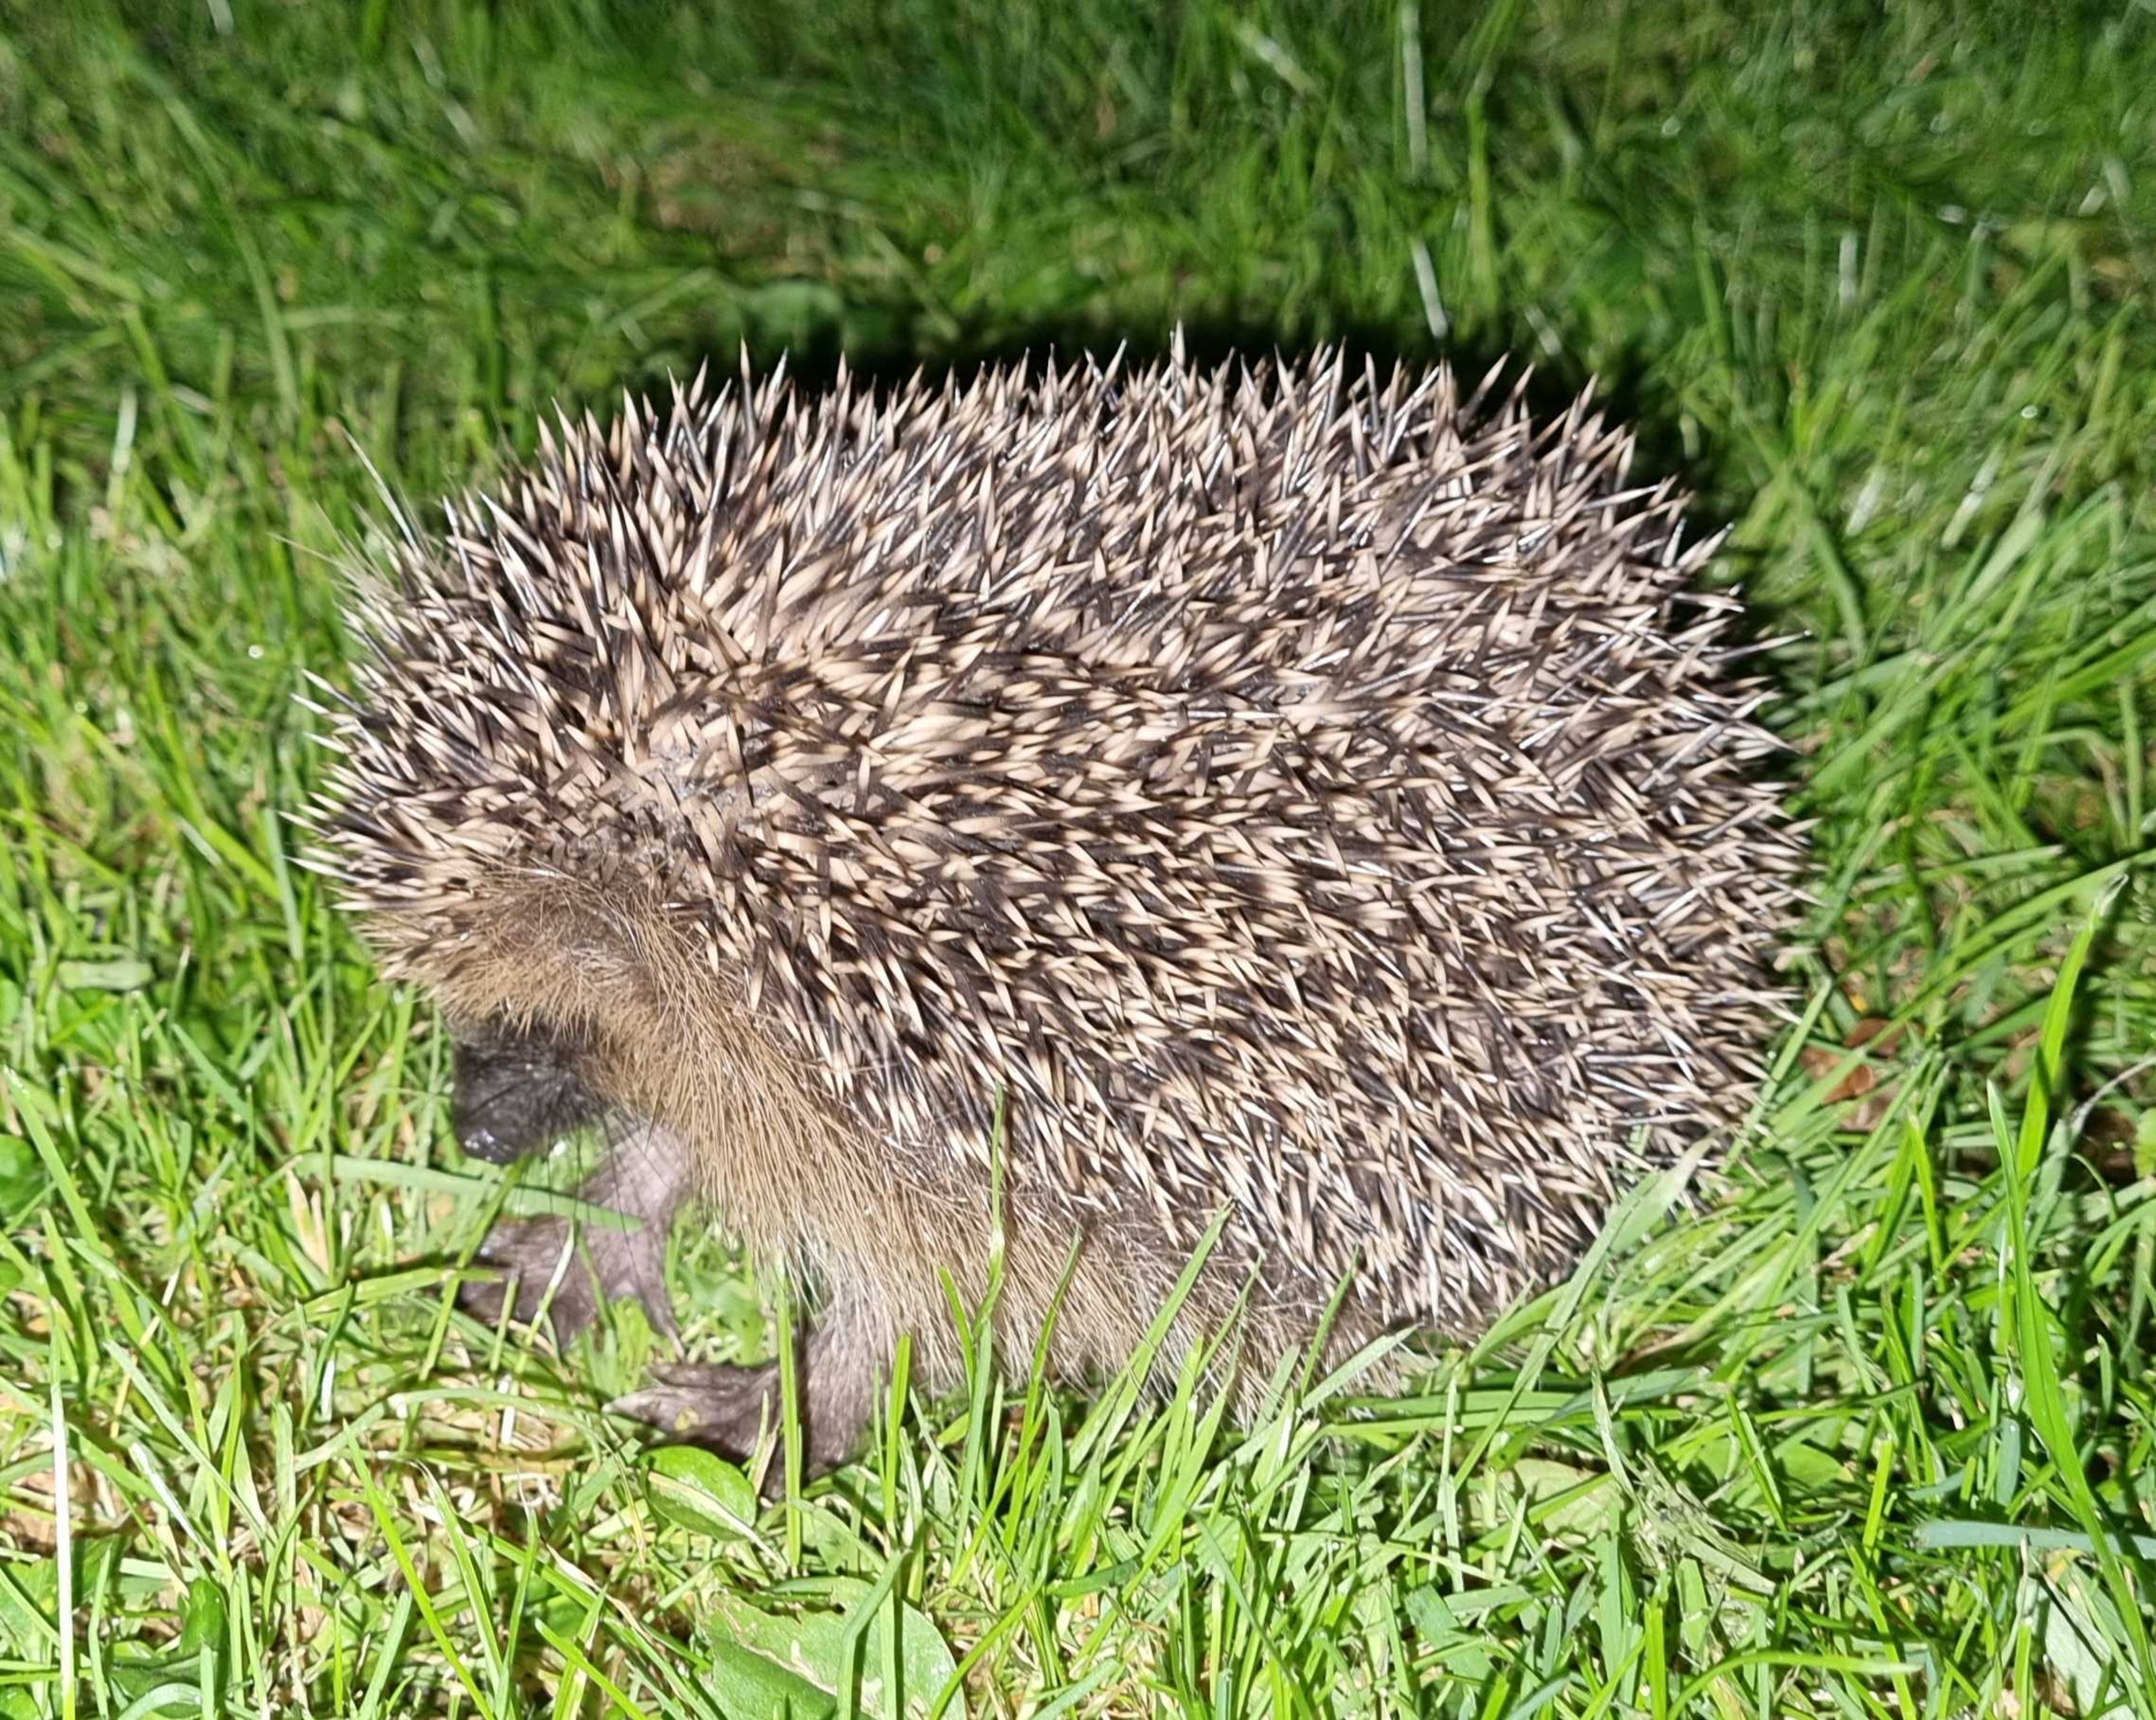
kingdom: Animalia
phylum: Chordata
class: Mammalia
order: Erinaceomorpha
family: Erinaceidae
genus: Erinaceus
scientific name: Erinaceus europaeus
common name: Pindsvin
